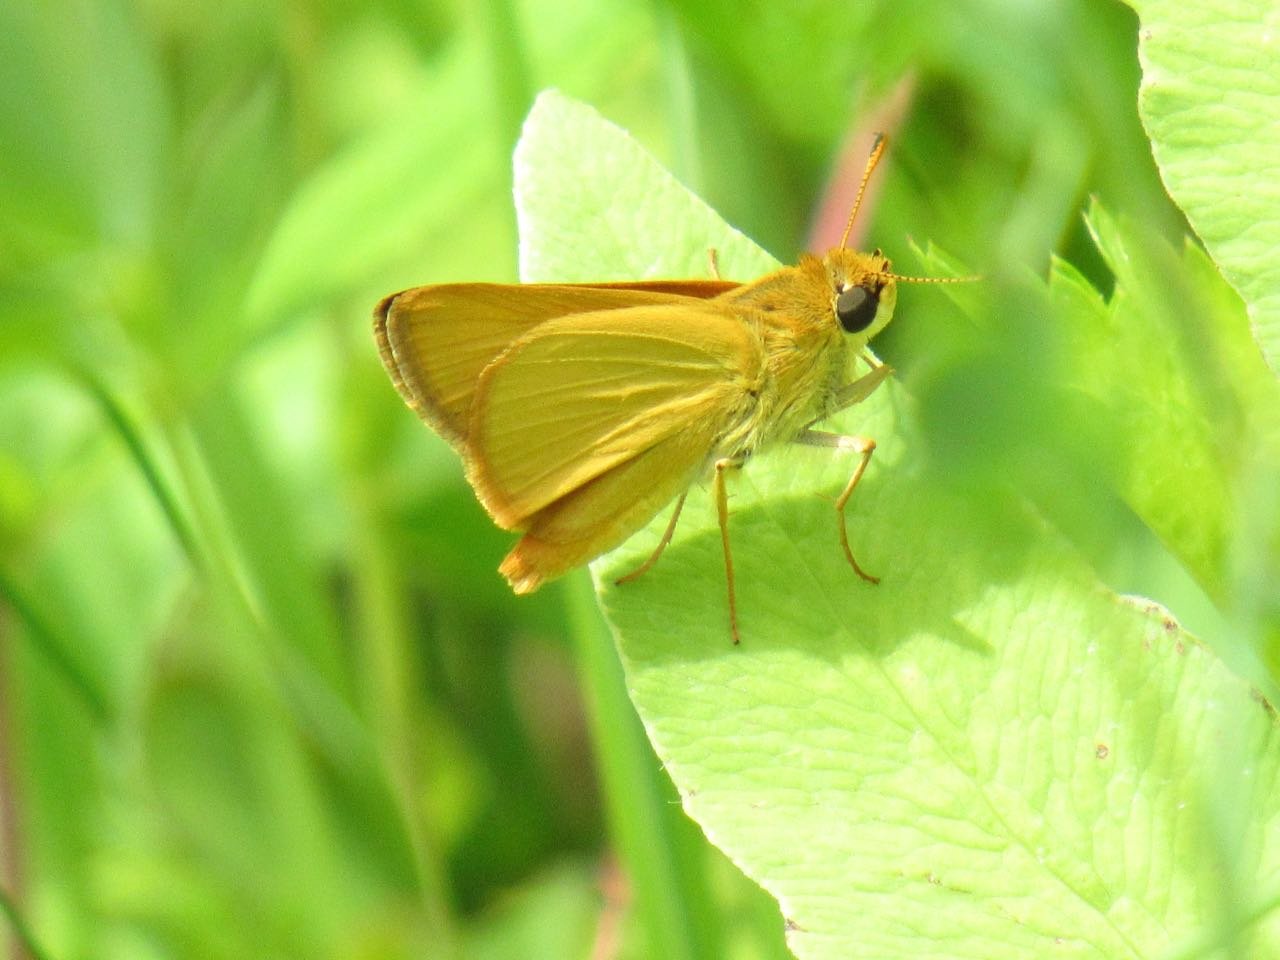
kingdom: Animalia
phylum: Arthropoda
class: Insecta
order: Lepidoptera
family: Hesperiidae
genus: Atrytone
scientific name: Atrytone delaware
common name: Delaware Skipper
